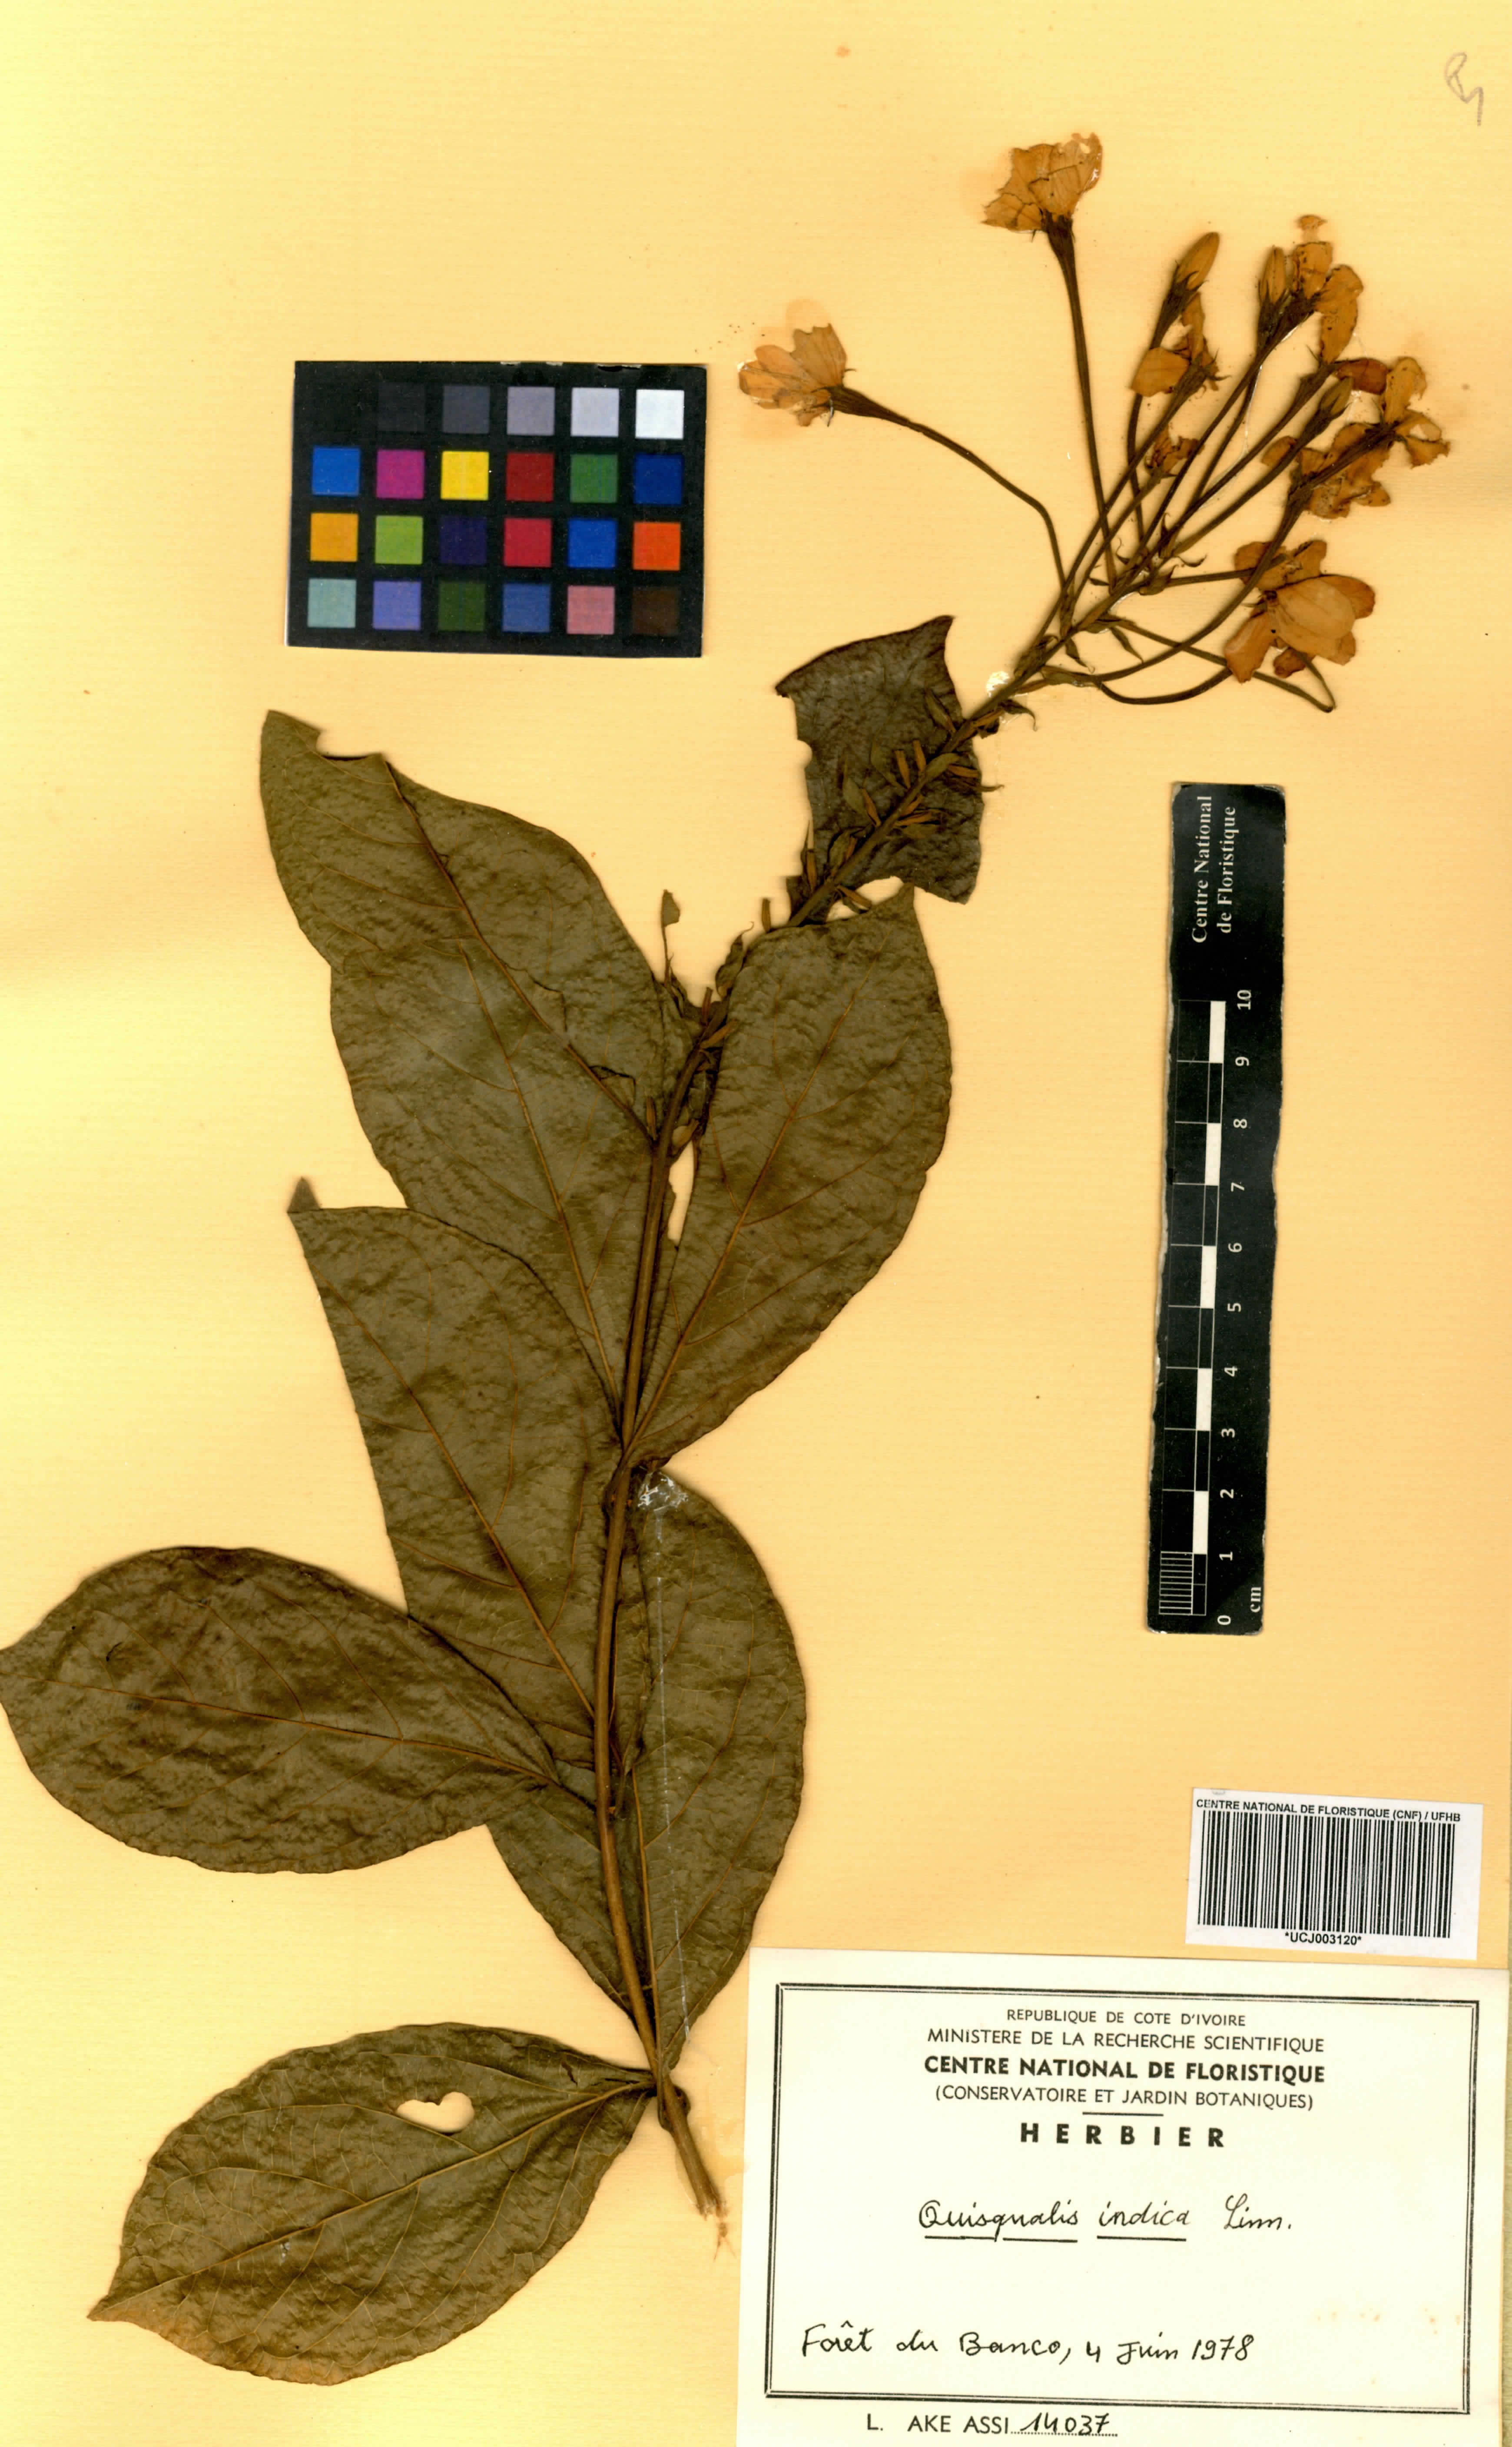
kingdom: Plantae
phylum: Tracheophyta
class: Magnoliopsida
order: Myrtales
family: Combretaceae
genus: Combretum
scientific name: Combretum indicum
